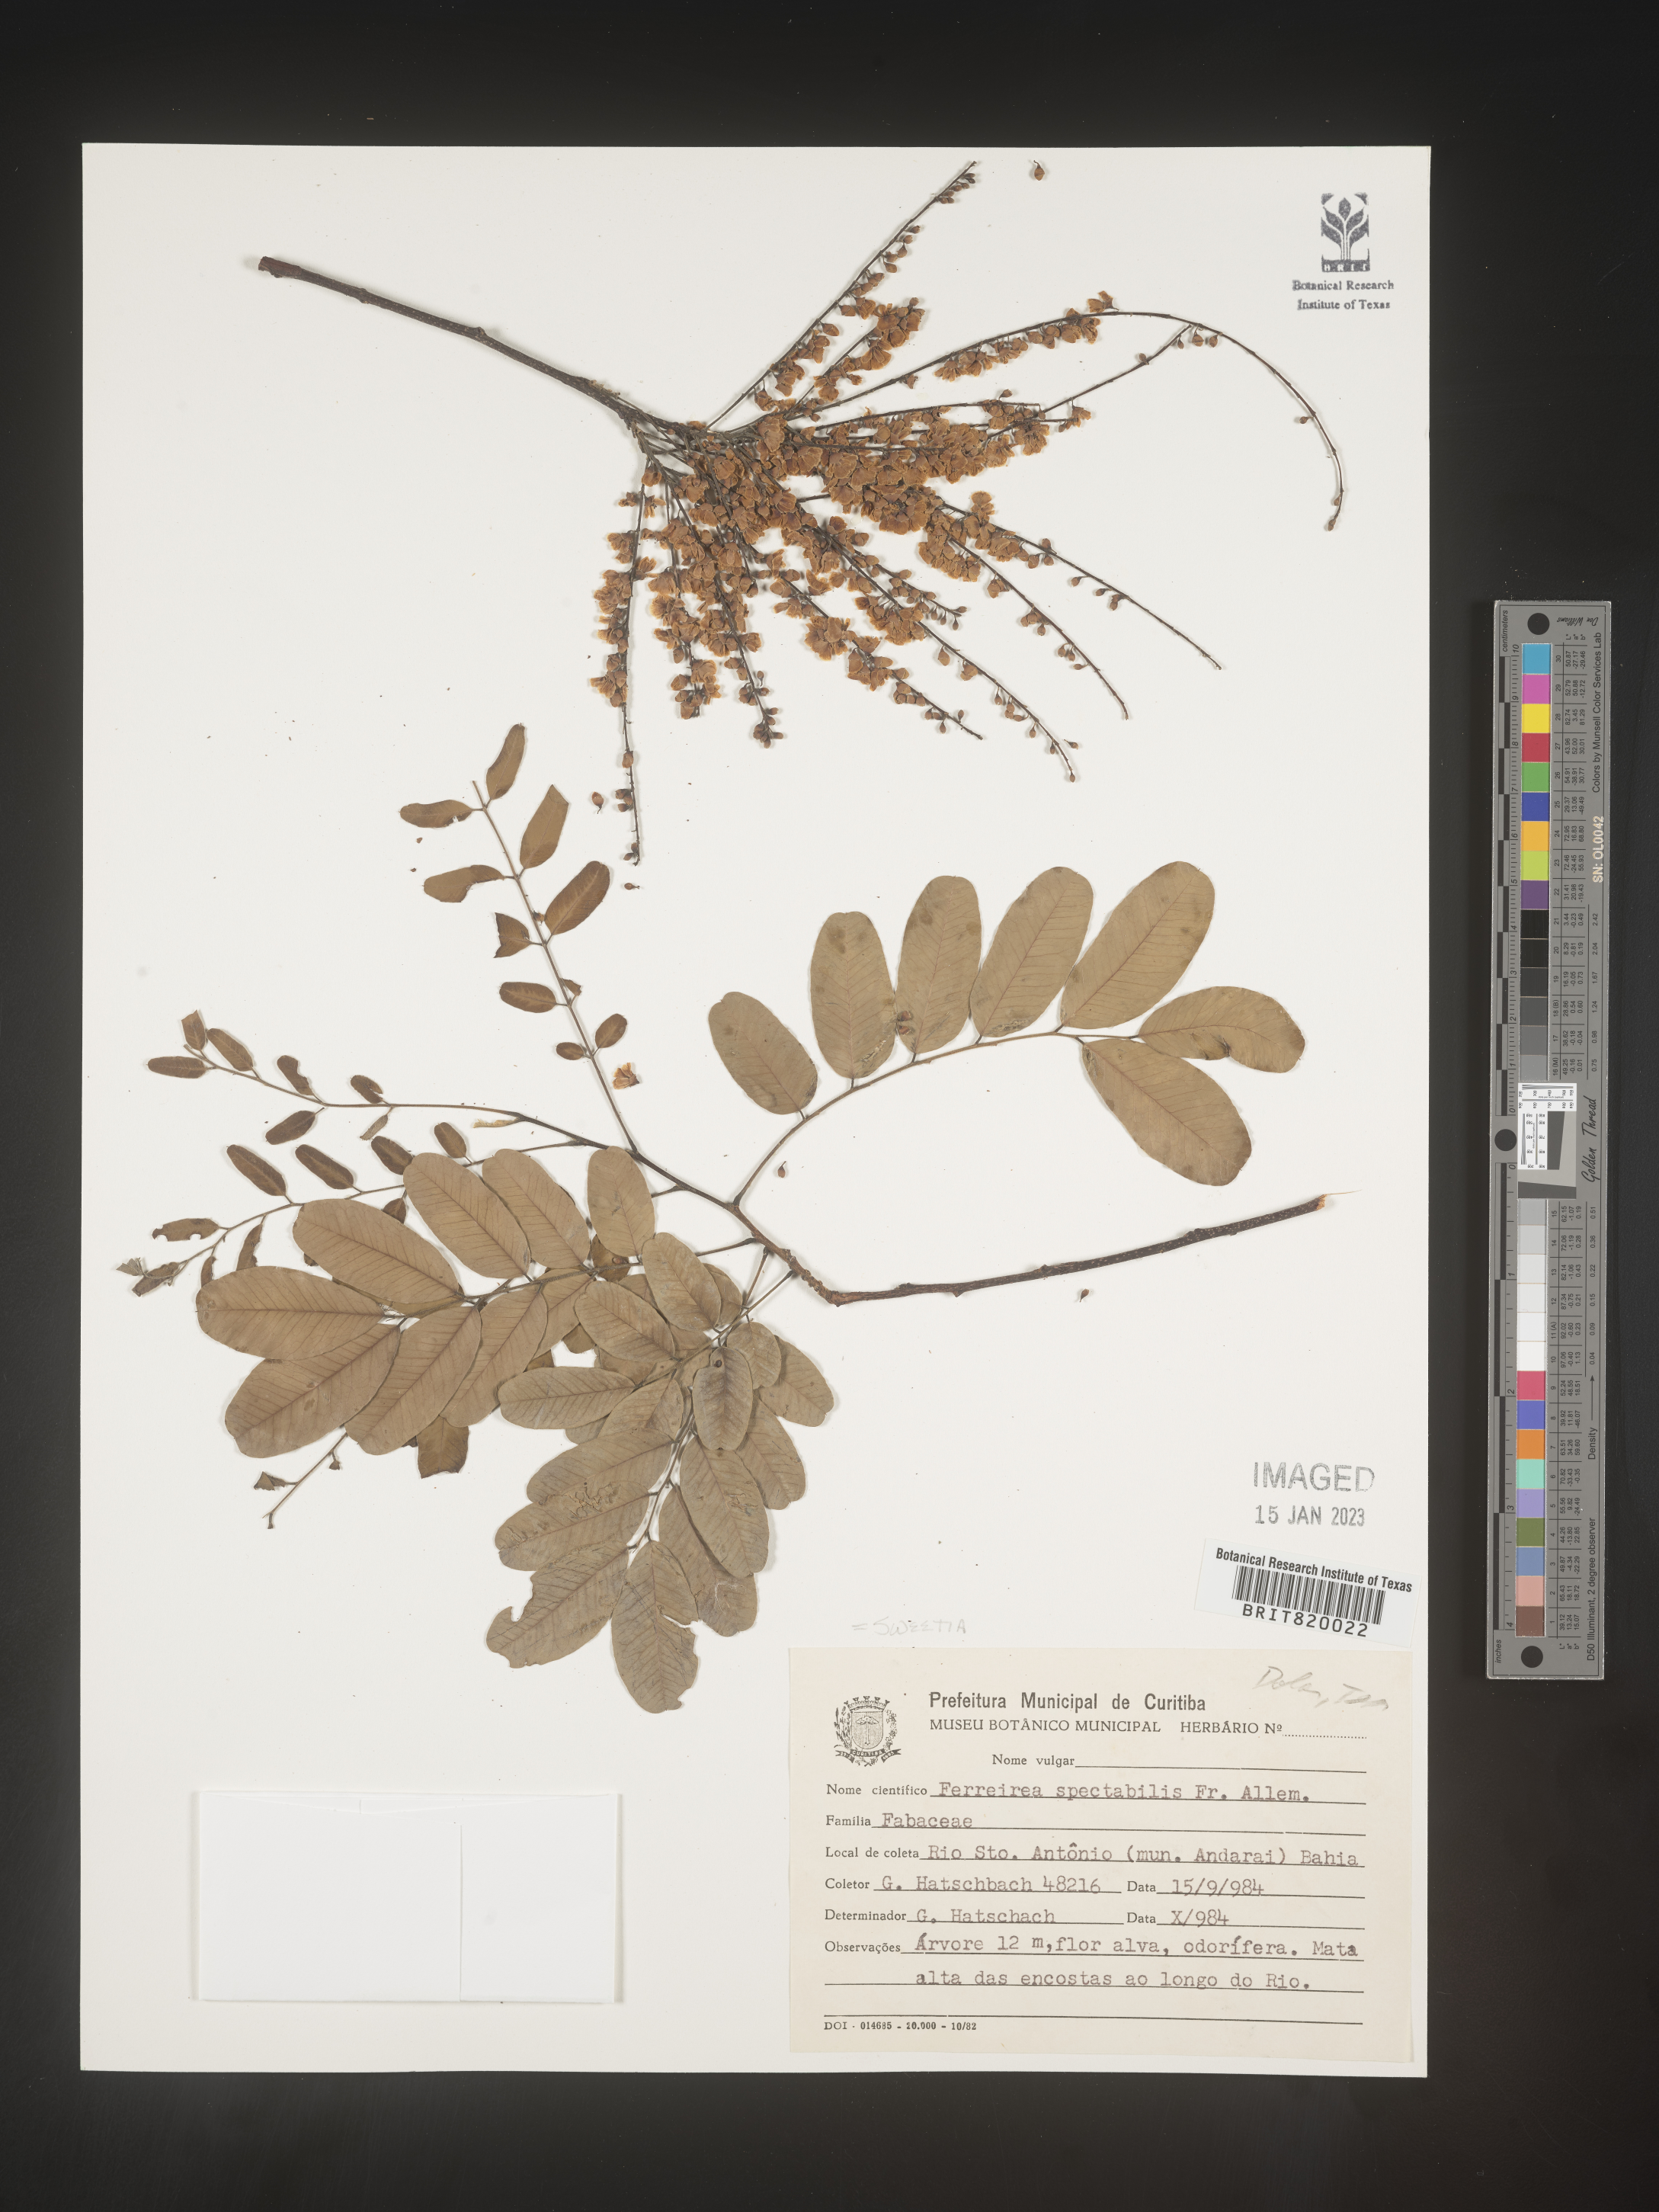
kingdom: Plantae
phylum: Tracheophyta
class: Magnoliopsida
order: Fabales
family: Fabaceae
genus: Sweetia
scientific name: Sweetia
